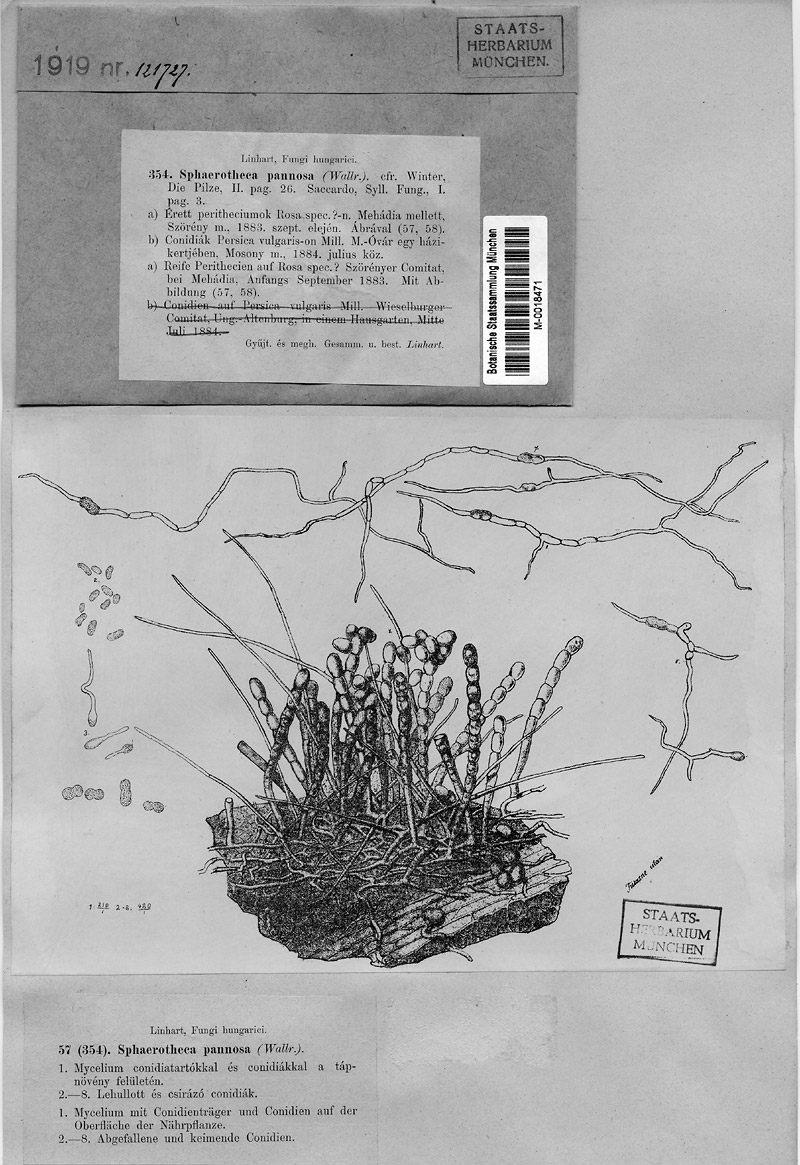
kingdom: Fungi
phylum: Ascomycota
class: Leotiomycetes
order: Helotiales
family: Erysiphaceae
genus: Podosphaera
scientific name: Podosphaera pannosa
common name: Rose mildew
